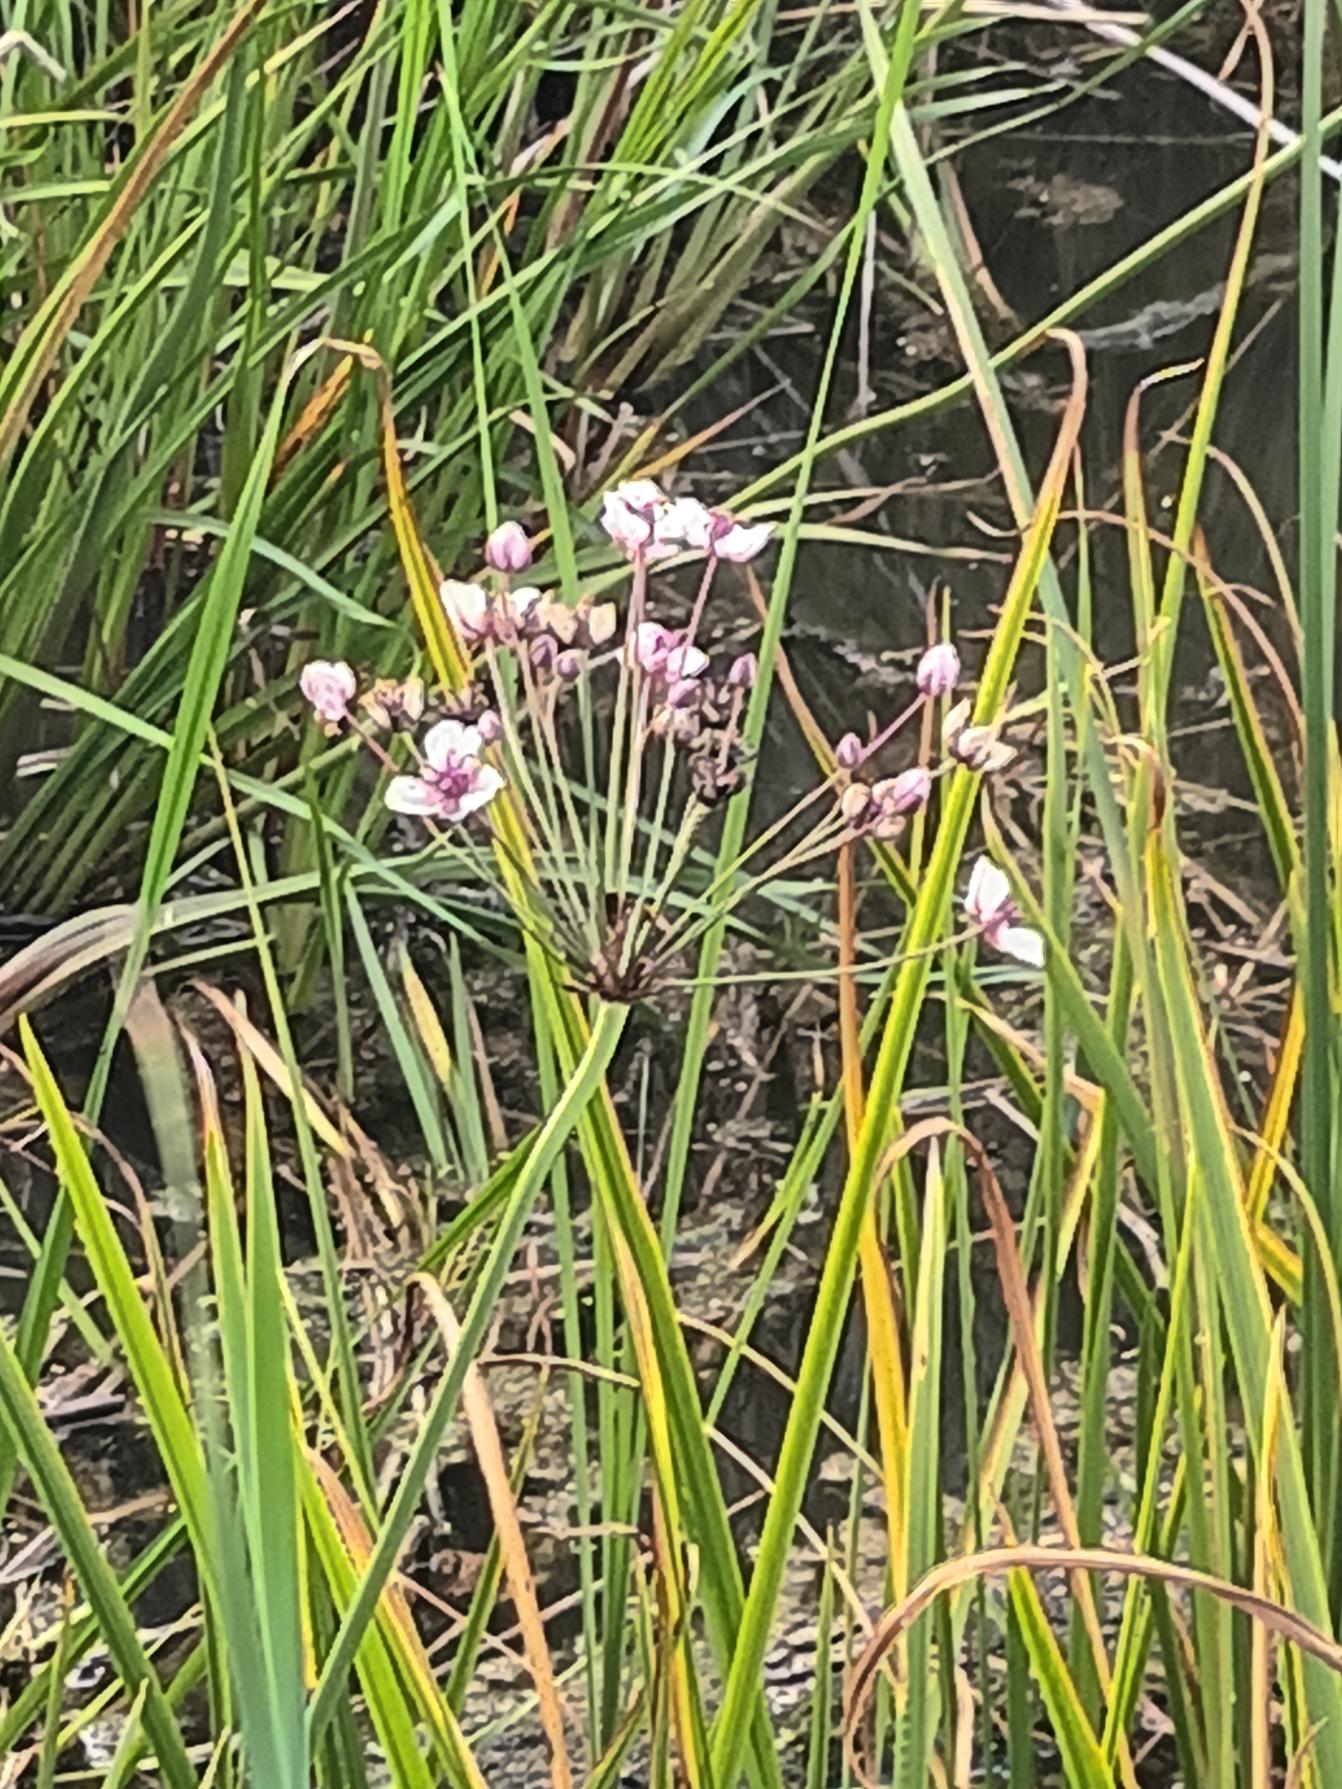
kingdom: Plantae
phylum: Tracheophyta
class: Liliopsida
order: Alismatales
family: Butomaceae
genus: Butomus
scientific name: Butomus umbellatus
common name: Brudelys
